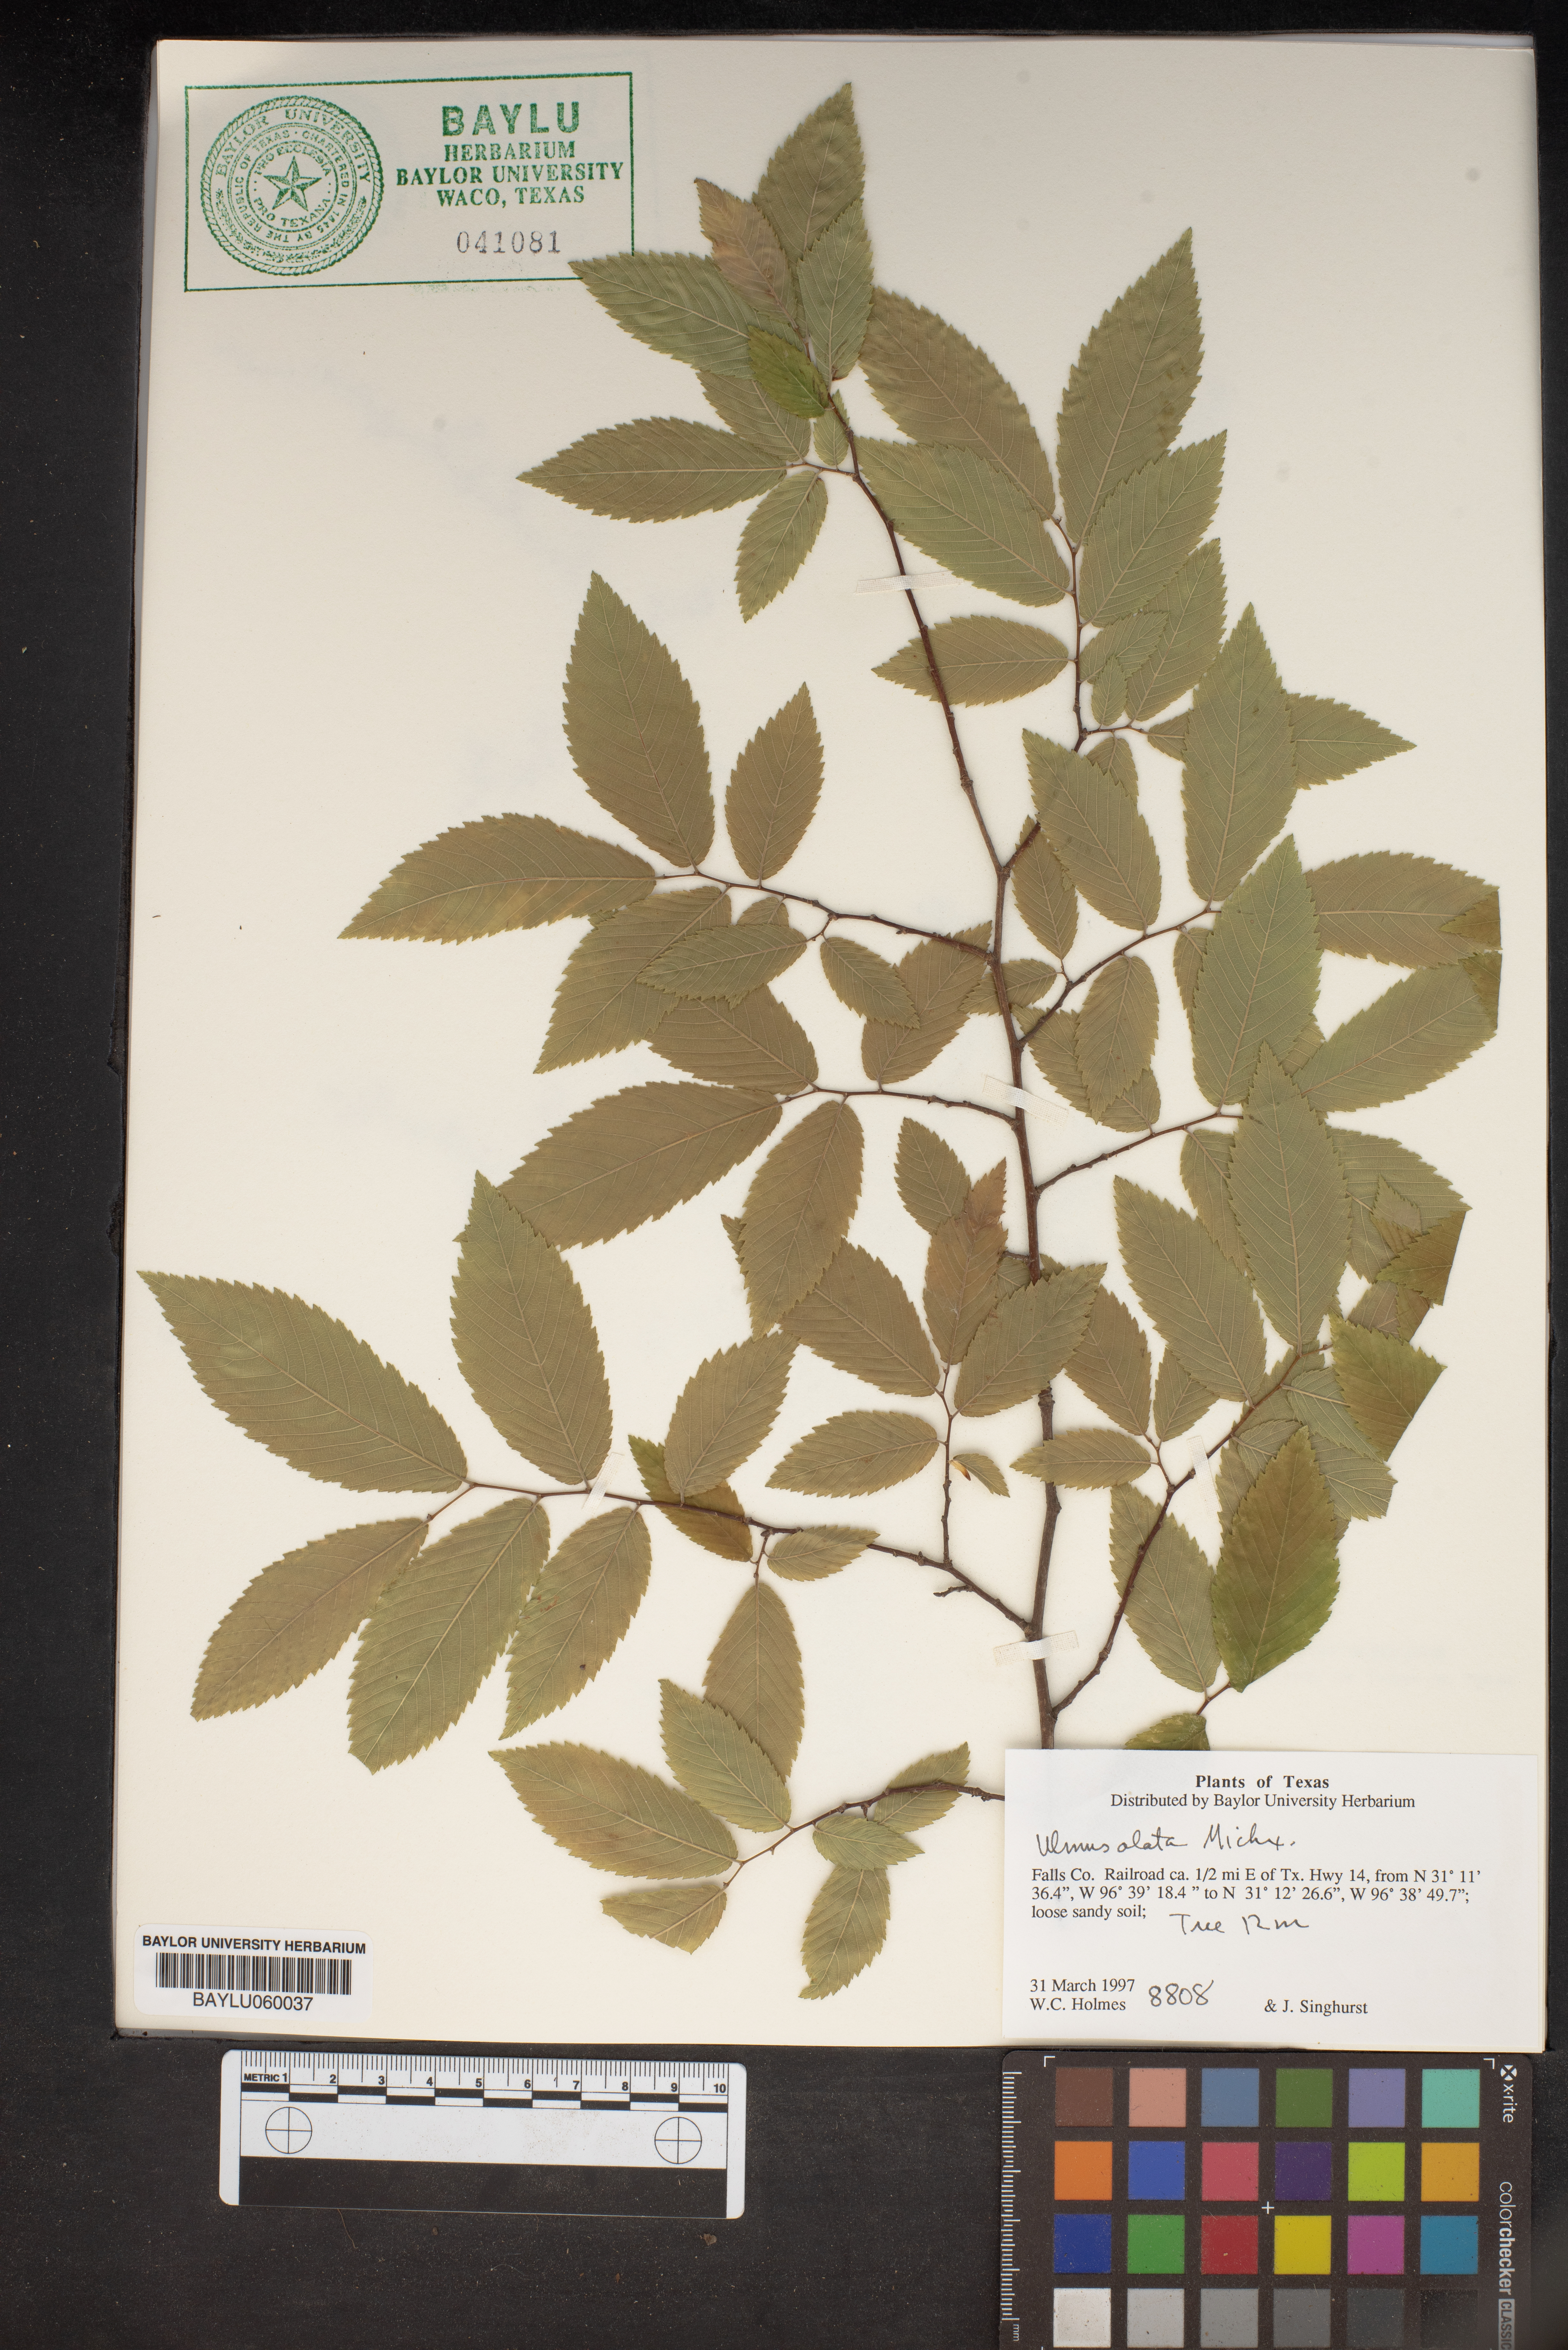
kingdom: Plantae
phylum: Tracheophyta
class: Magnoliopsida
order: Rosales
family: Ulmaceae
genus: Ulmus
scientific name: Ulmus alata
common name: Winged elm
